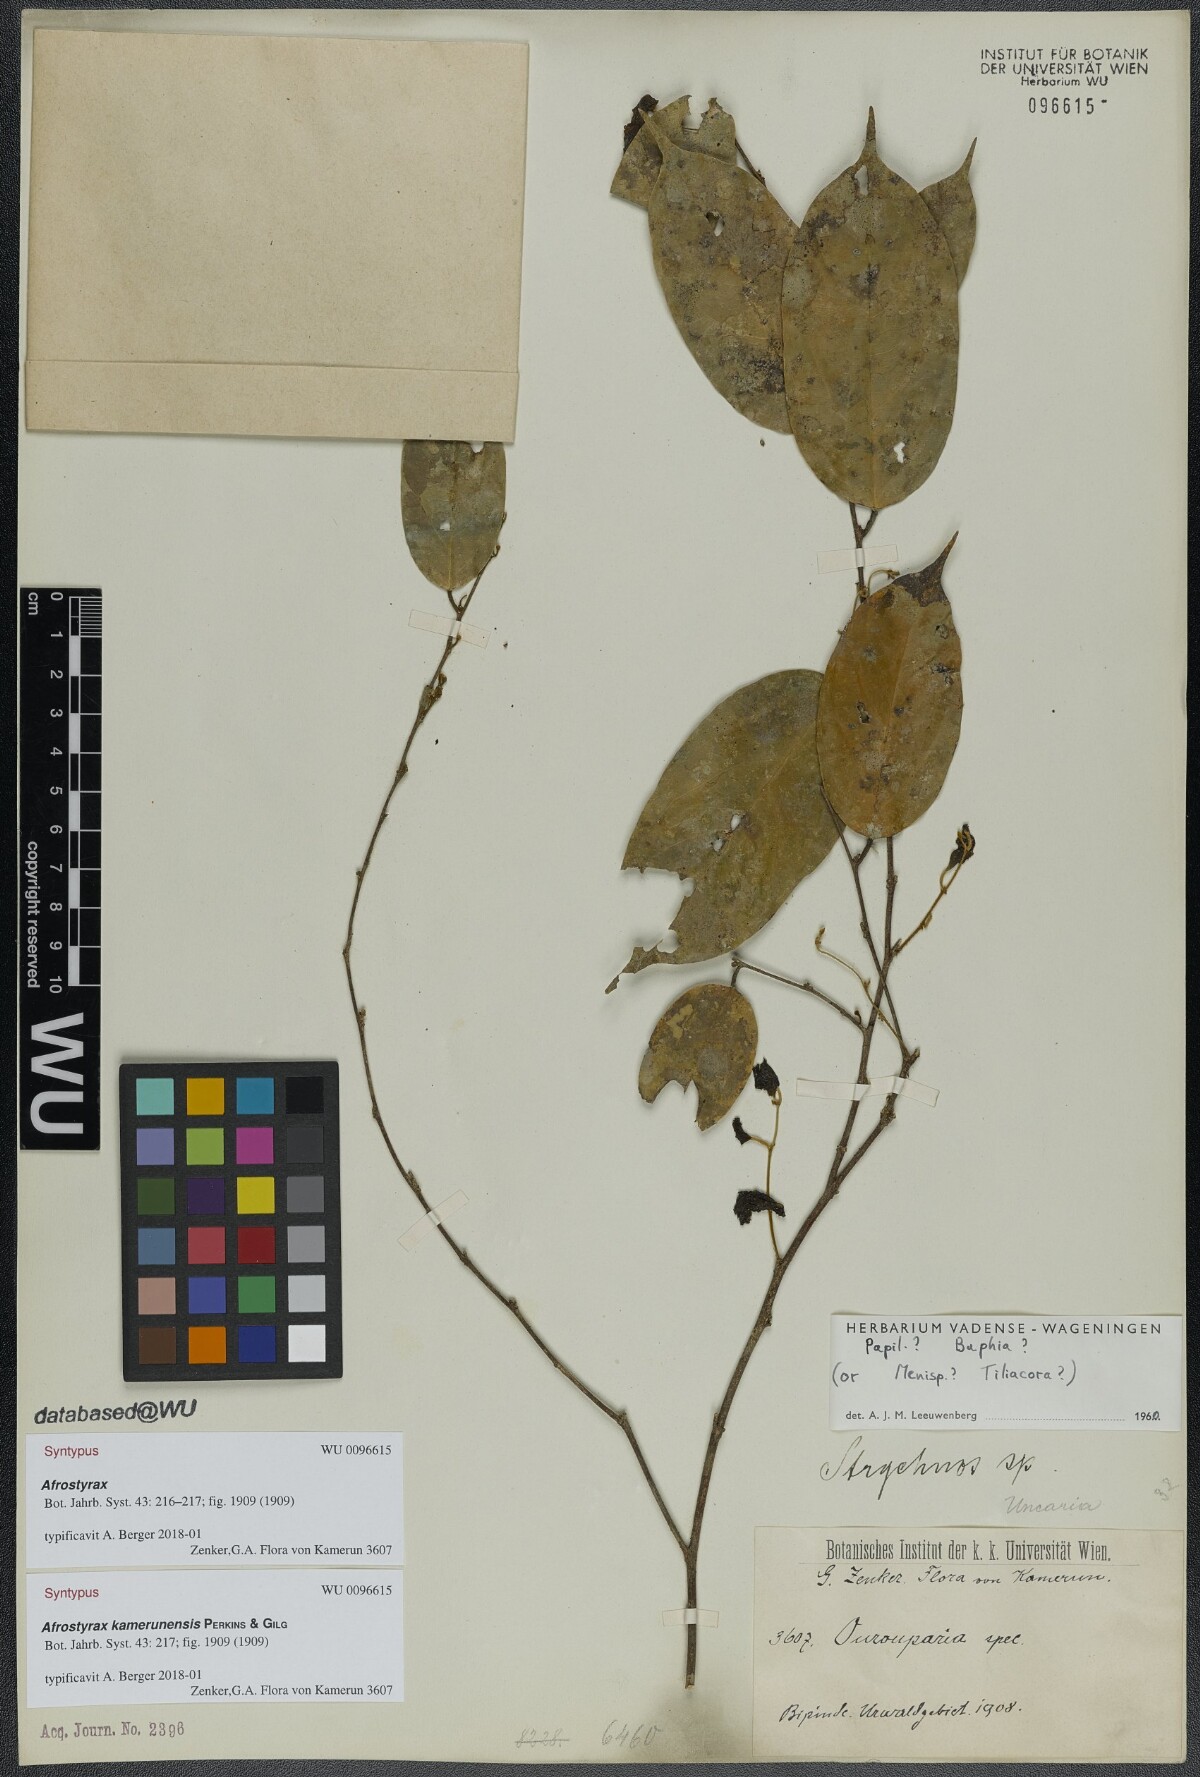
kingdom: Plantae
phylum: Tracheophyta
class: Magnoliopsida
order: Oxalidales
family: Huaceae
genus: Afrostyrax
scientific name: Afrostyrax kamerunensis
